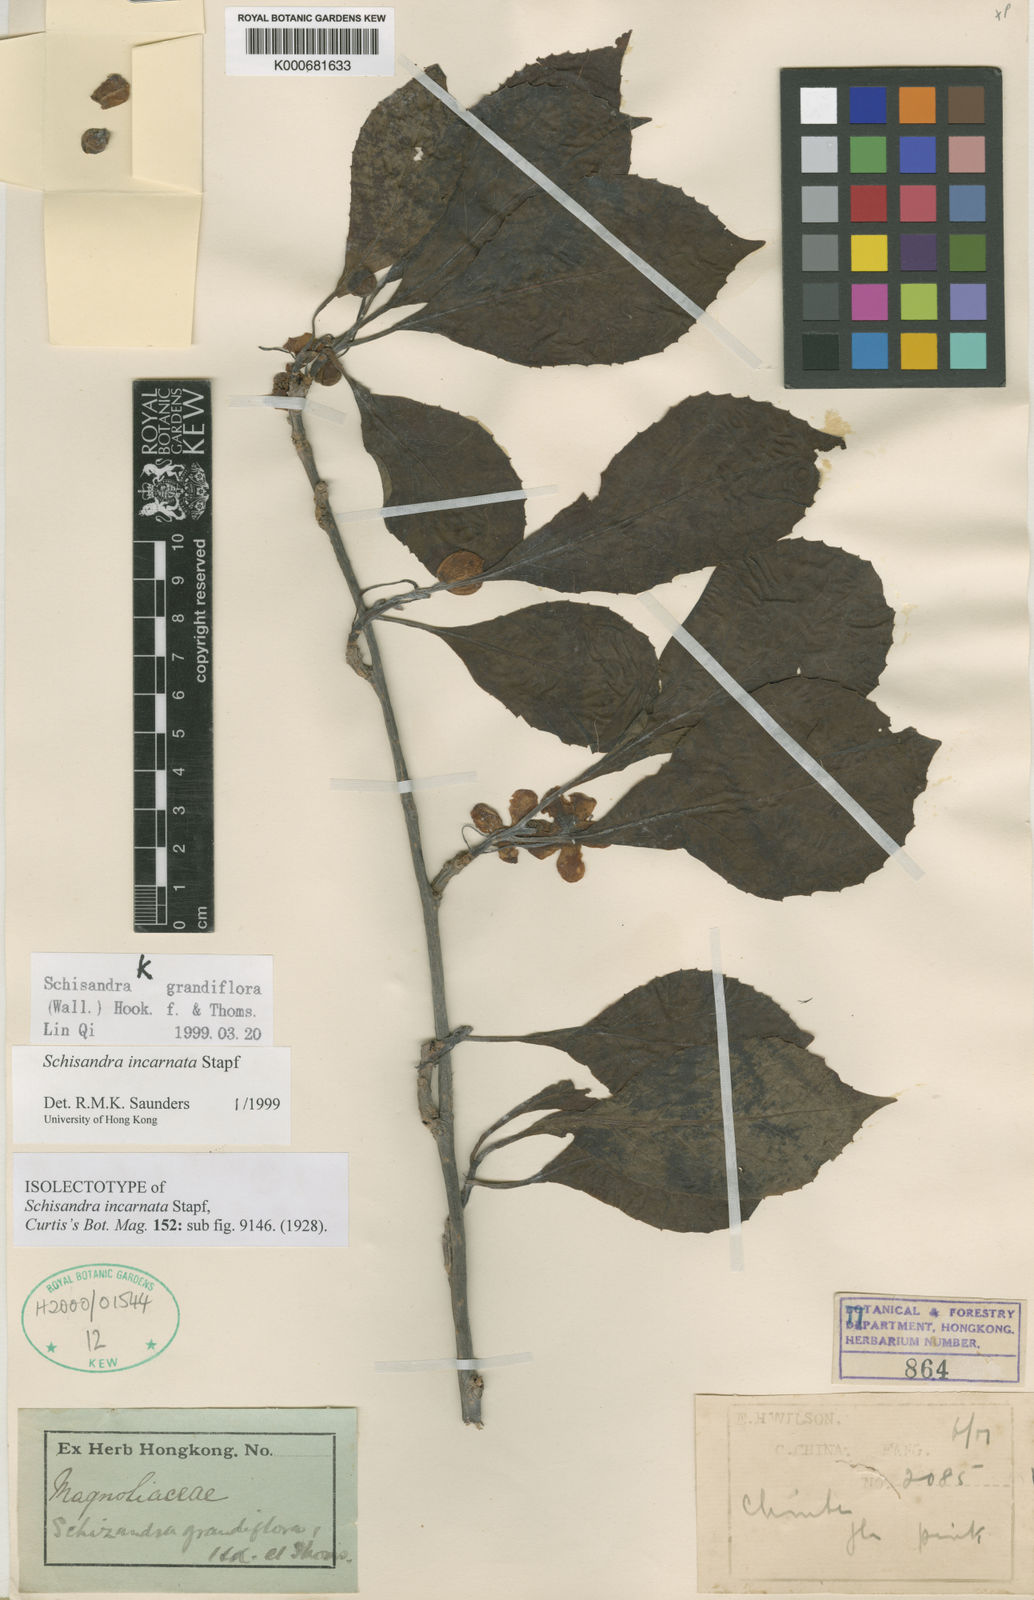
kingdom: Plantae
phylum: Tracheophyta
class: Magnoliopsida
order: Austrobaileyales
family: Schisandraceae
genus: Schisandra
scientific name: Schisandra incarnata
